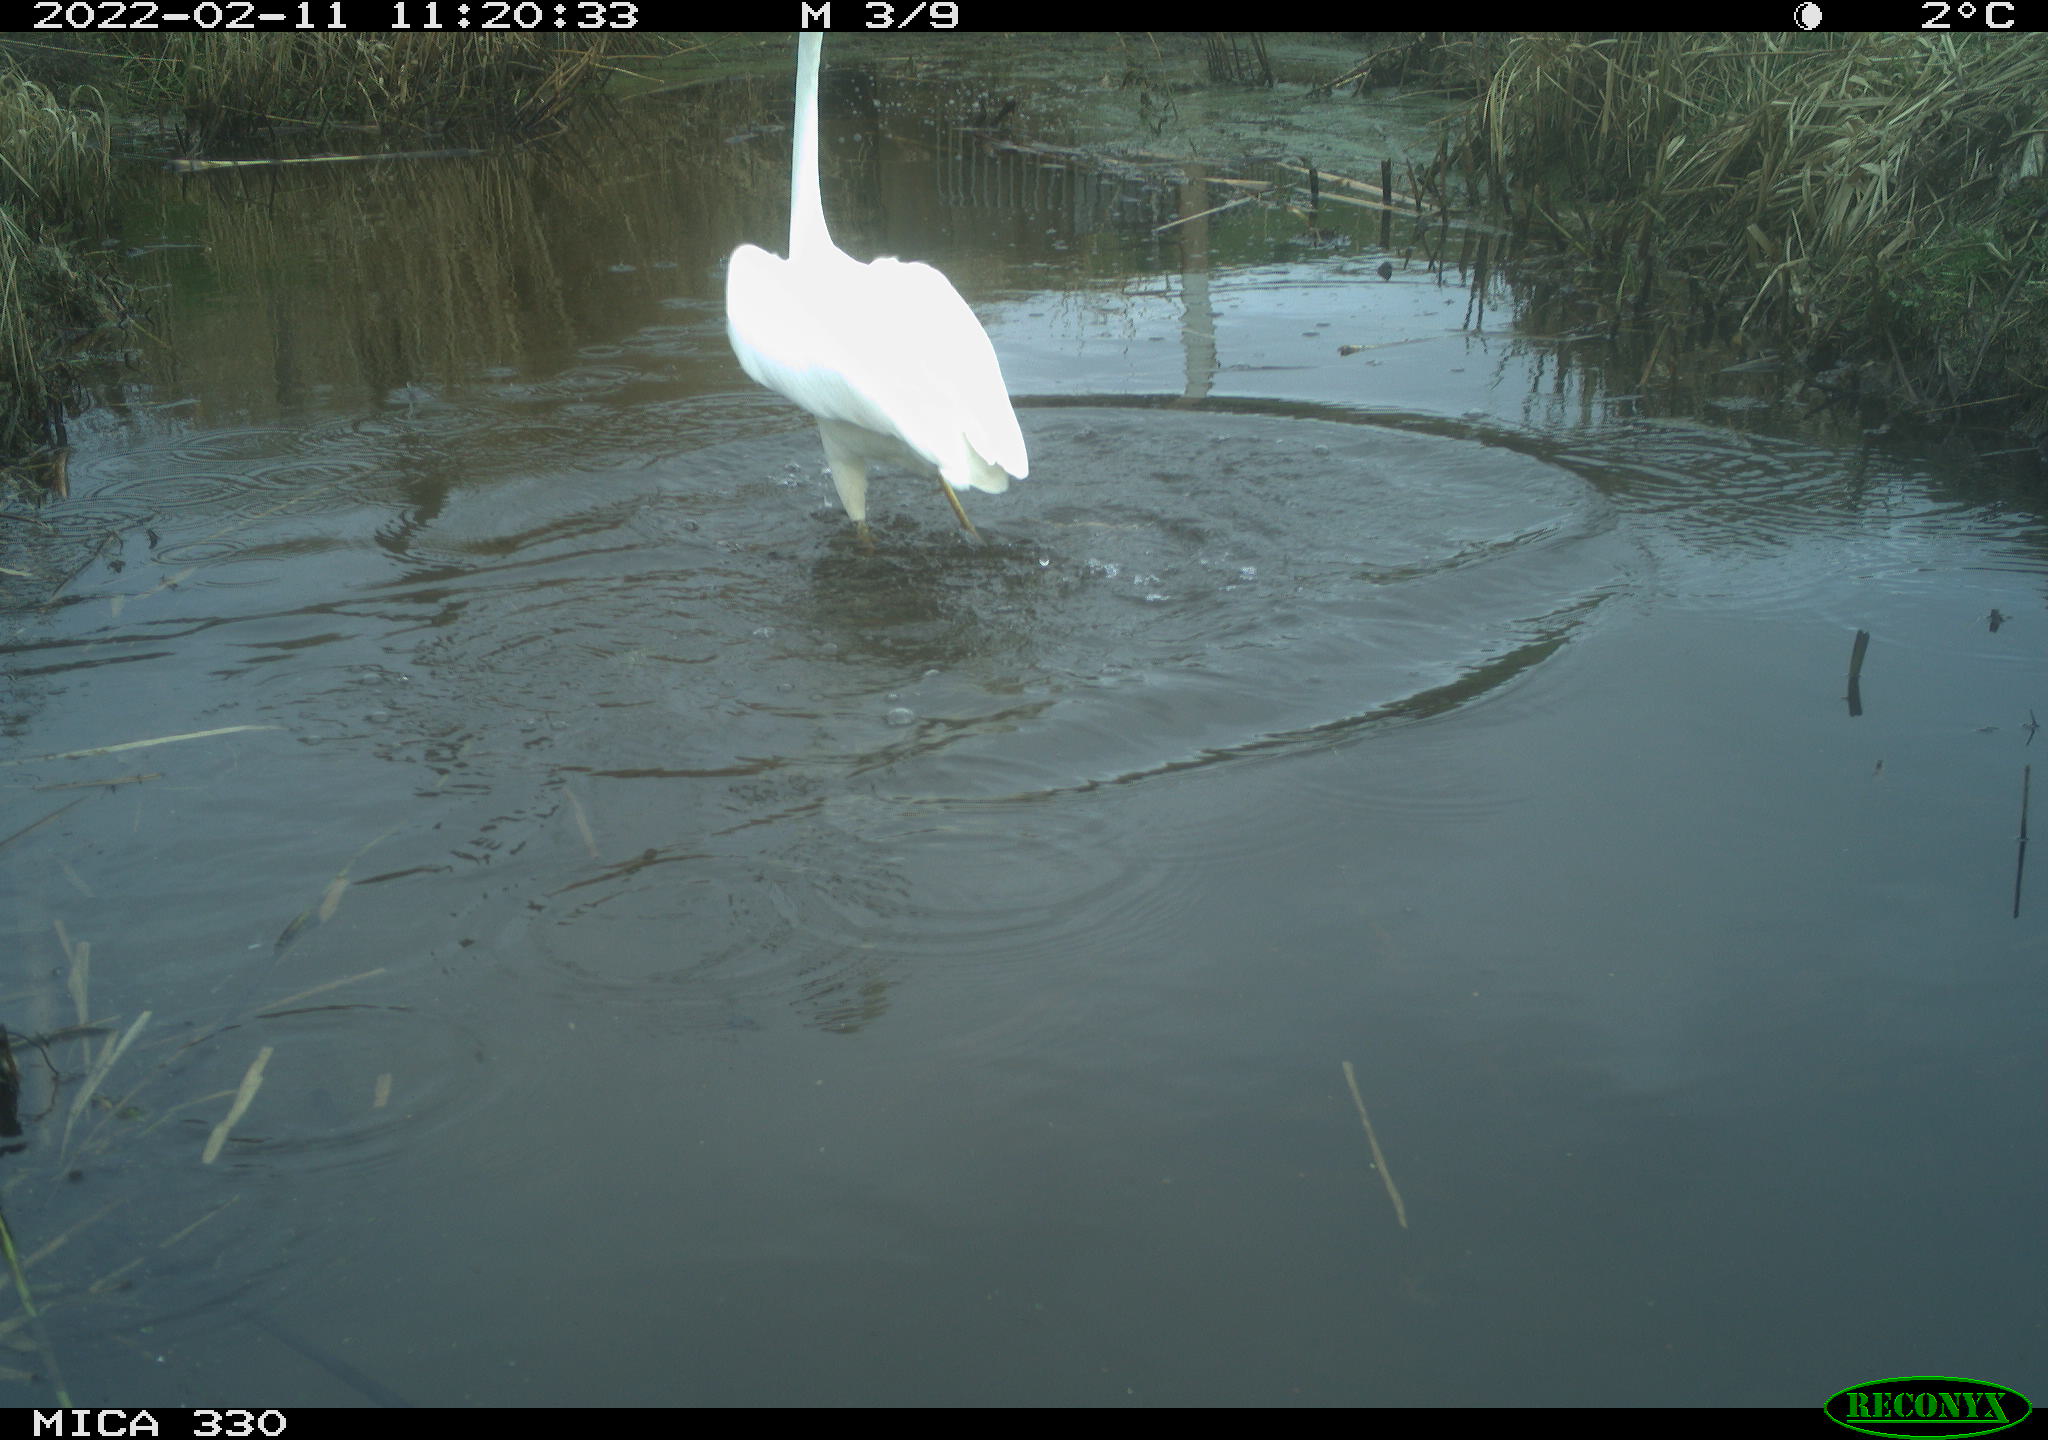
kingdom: Animalia
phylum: Chordata
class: Aves
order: Pelecaniformes
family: Ardeidae
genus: Ardea
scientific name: Ardea alba
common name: Great egret
